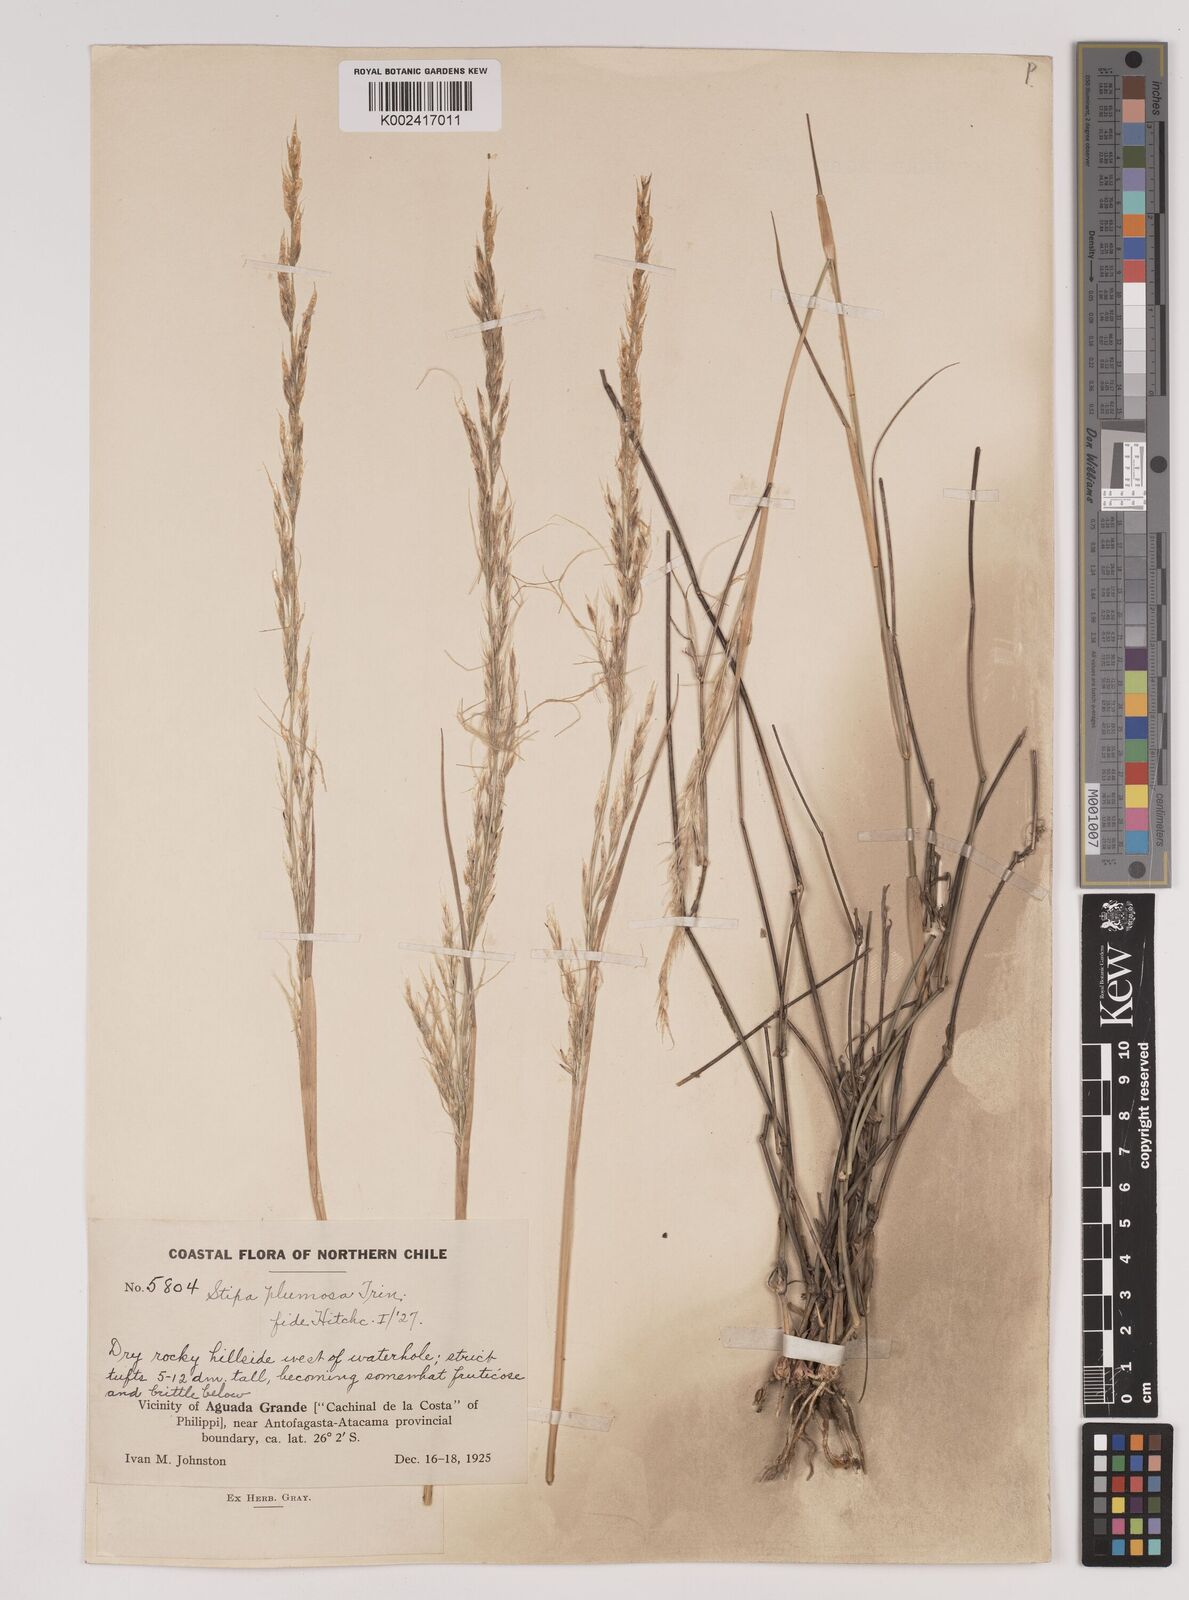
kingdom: Plantae
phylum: Tracheophyta
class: Liliopsida
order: Poales
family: Poaceae
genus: Stipa
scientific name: Stipa plumosa
